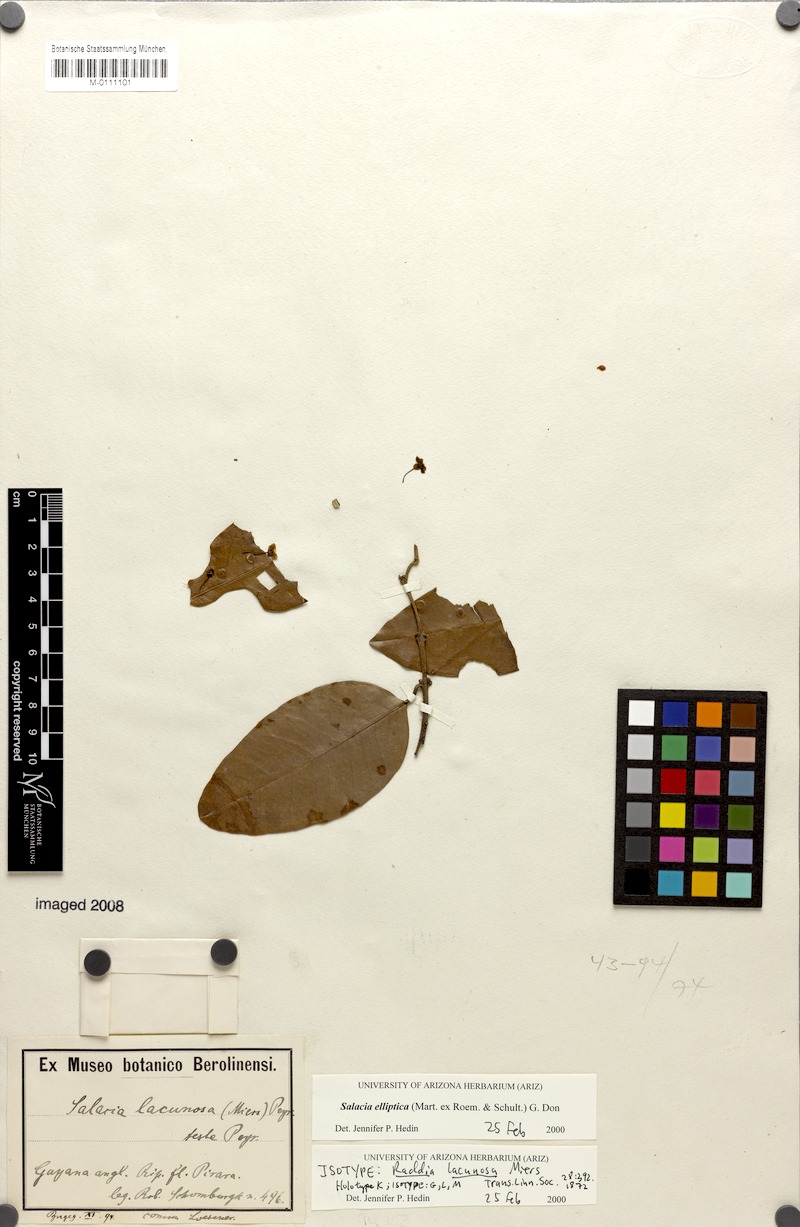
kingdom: Plantae
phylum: Tracheophyta
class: Magnoliopsida
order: Celastrales
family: Celastraceae
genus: Salacia
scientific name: Salacia elliptica
